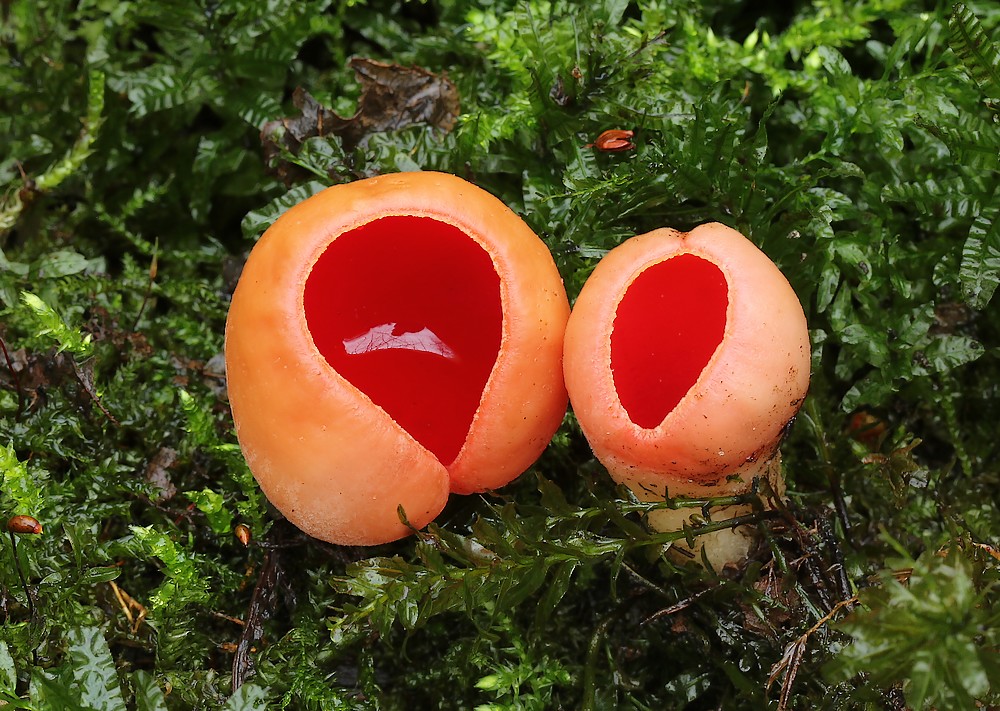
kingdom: Fungi
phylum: Ascomycota
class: Pezizomycetes
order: Pezizales
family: Sarcoscyphaceae
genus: Sarcoscypha
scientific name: Sarcoscypha austriaca
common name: krølhåret pragtbæger
